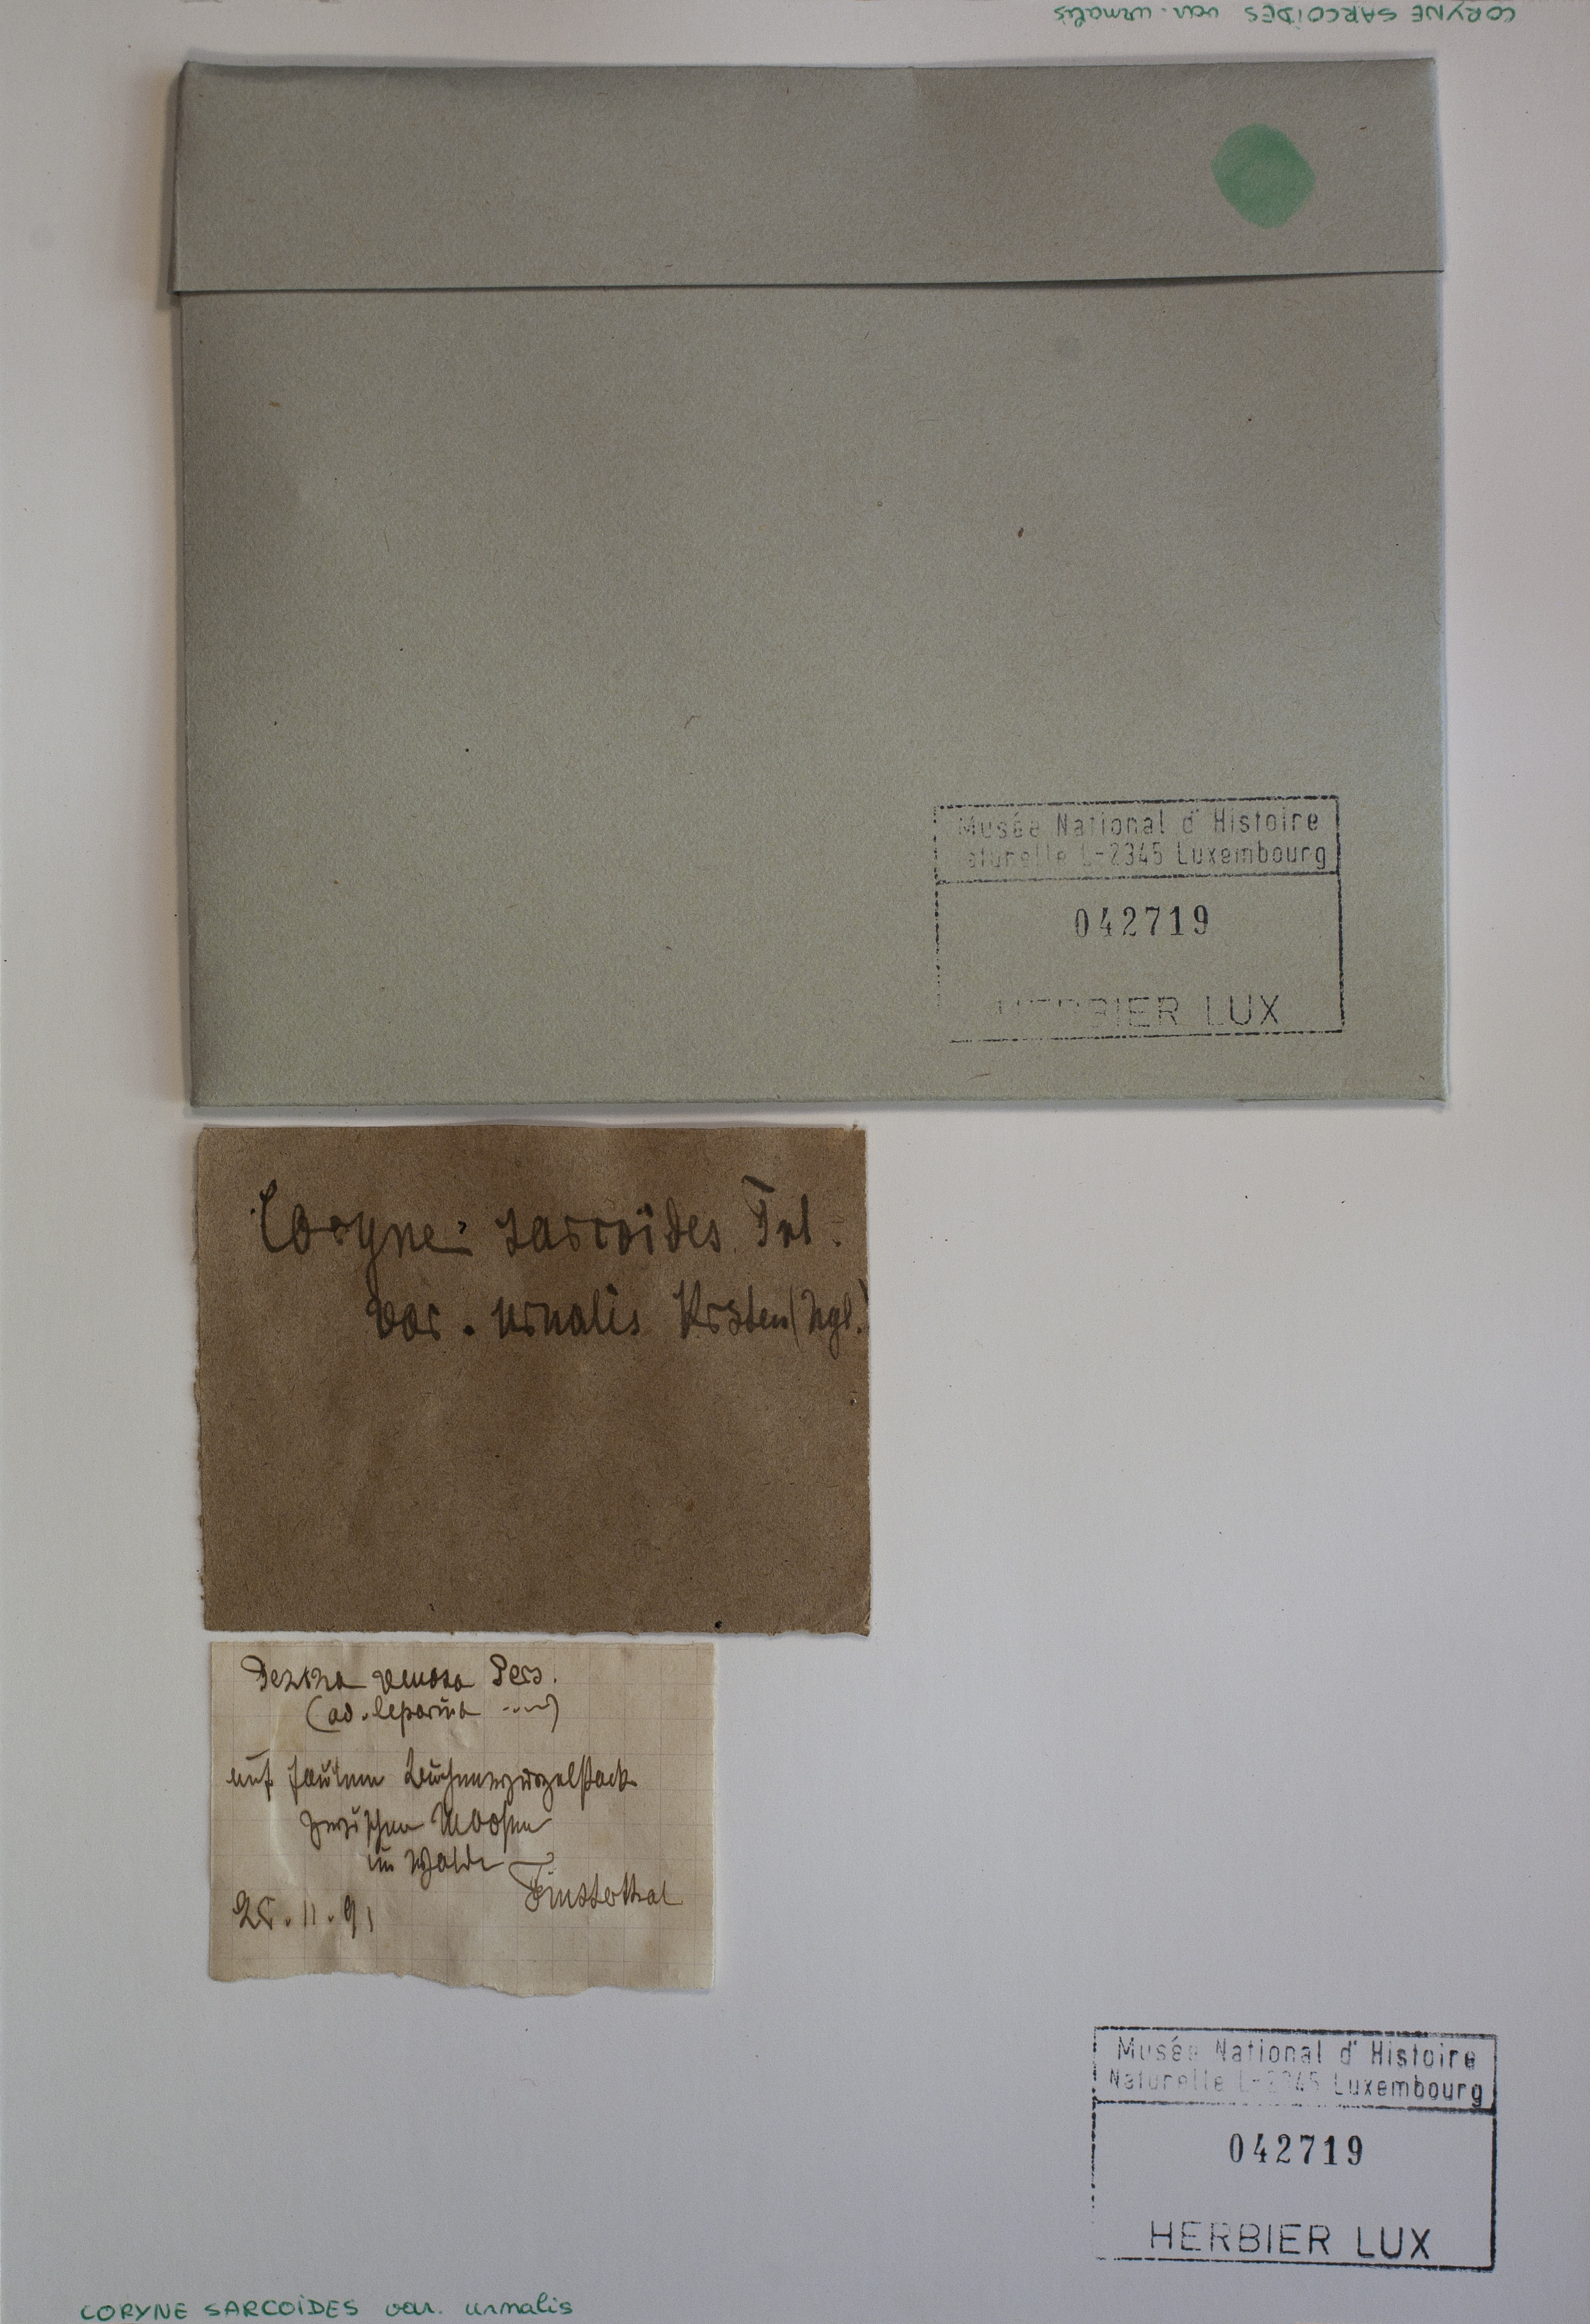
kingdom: Fungi
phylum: Ascomycota
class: Leotiomycetes
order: Helotiales
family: Gelatinodiscaceae
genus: Ascocoryne
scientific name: Ascocoryne sarcoides
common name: Purple jellydisc
